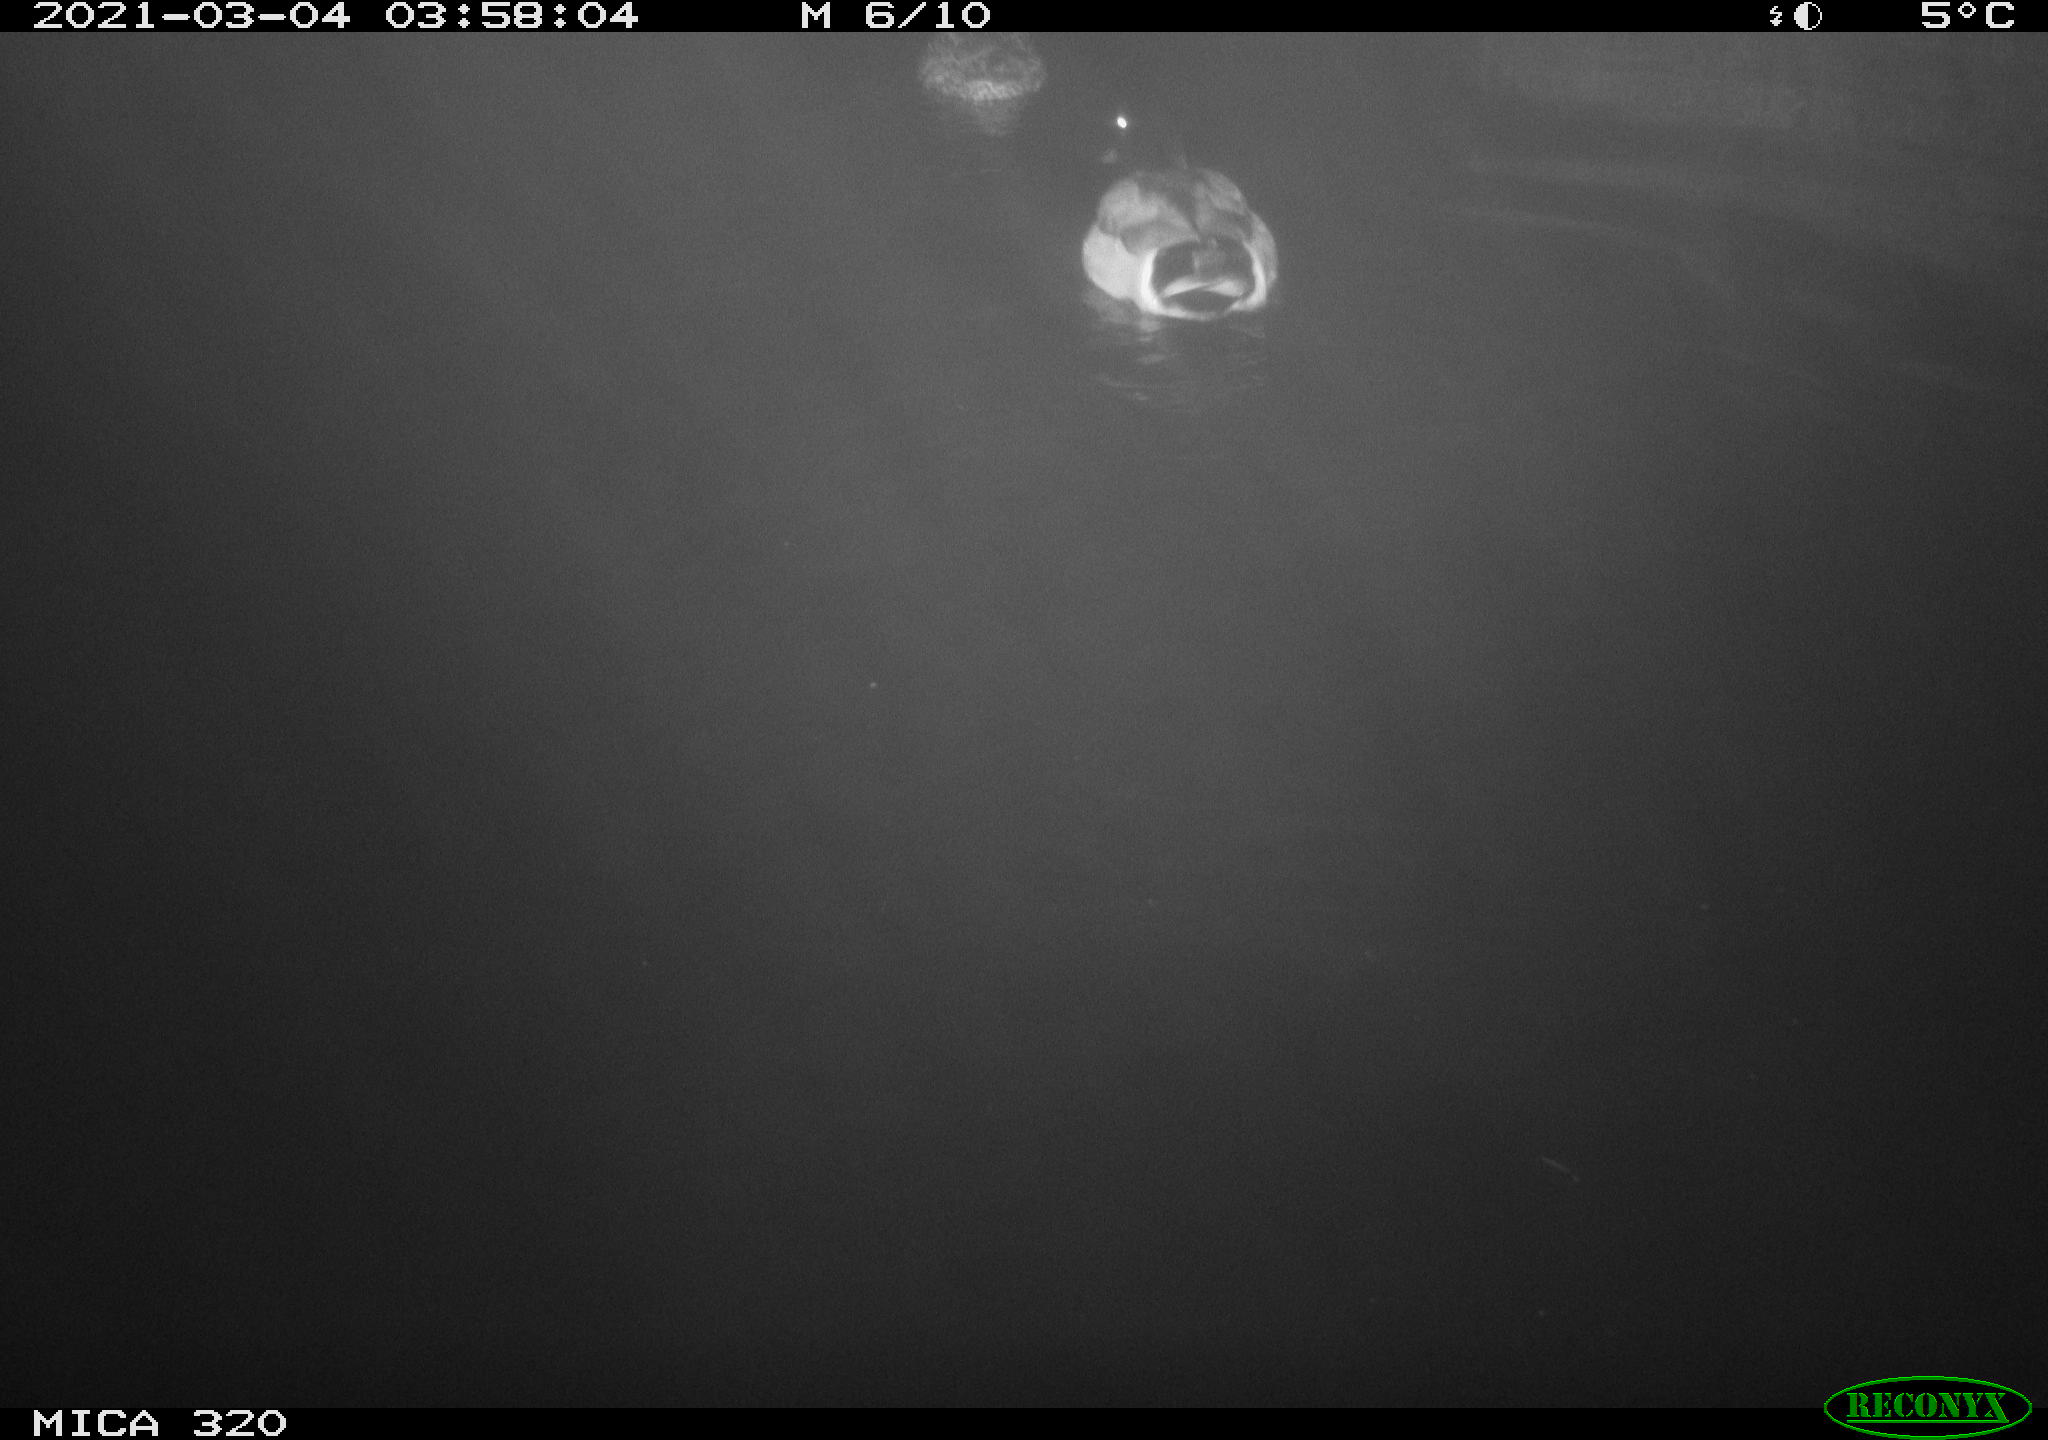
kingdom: Animalia
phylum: Chordata
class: Aves
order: Anseriformes
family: Anatidae
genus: Anas
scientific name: Anas platyrhynchos
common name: Mallard
